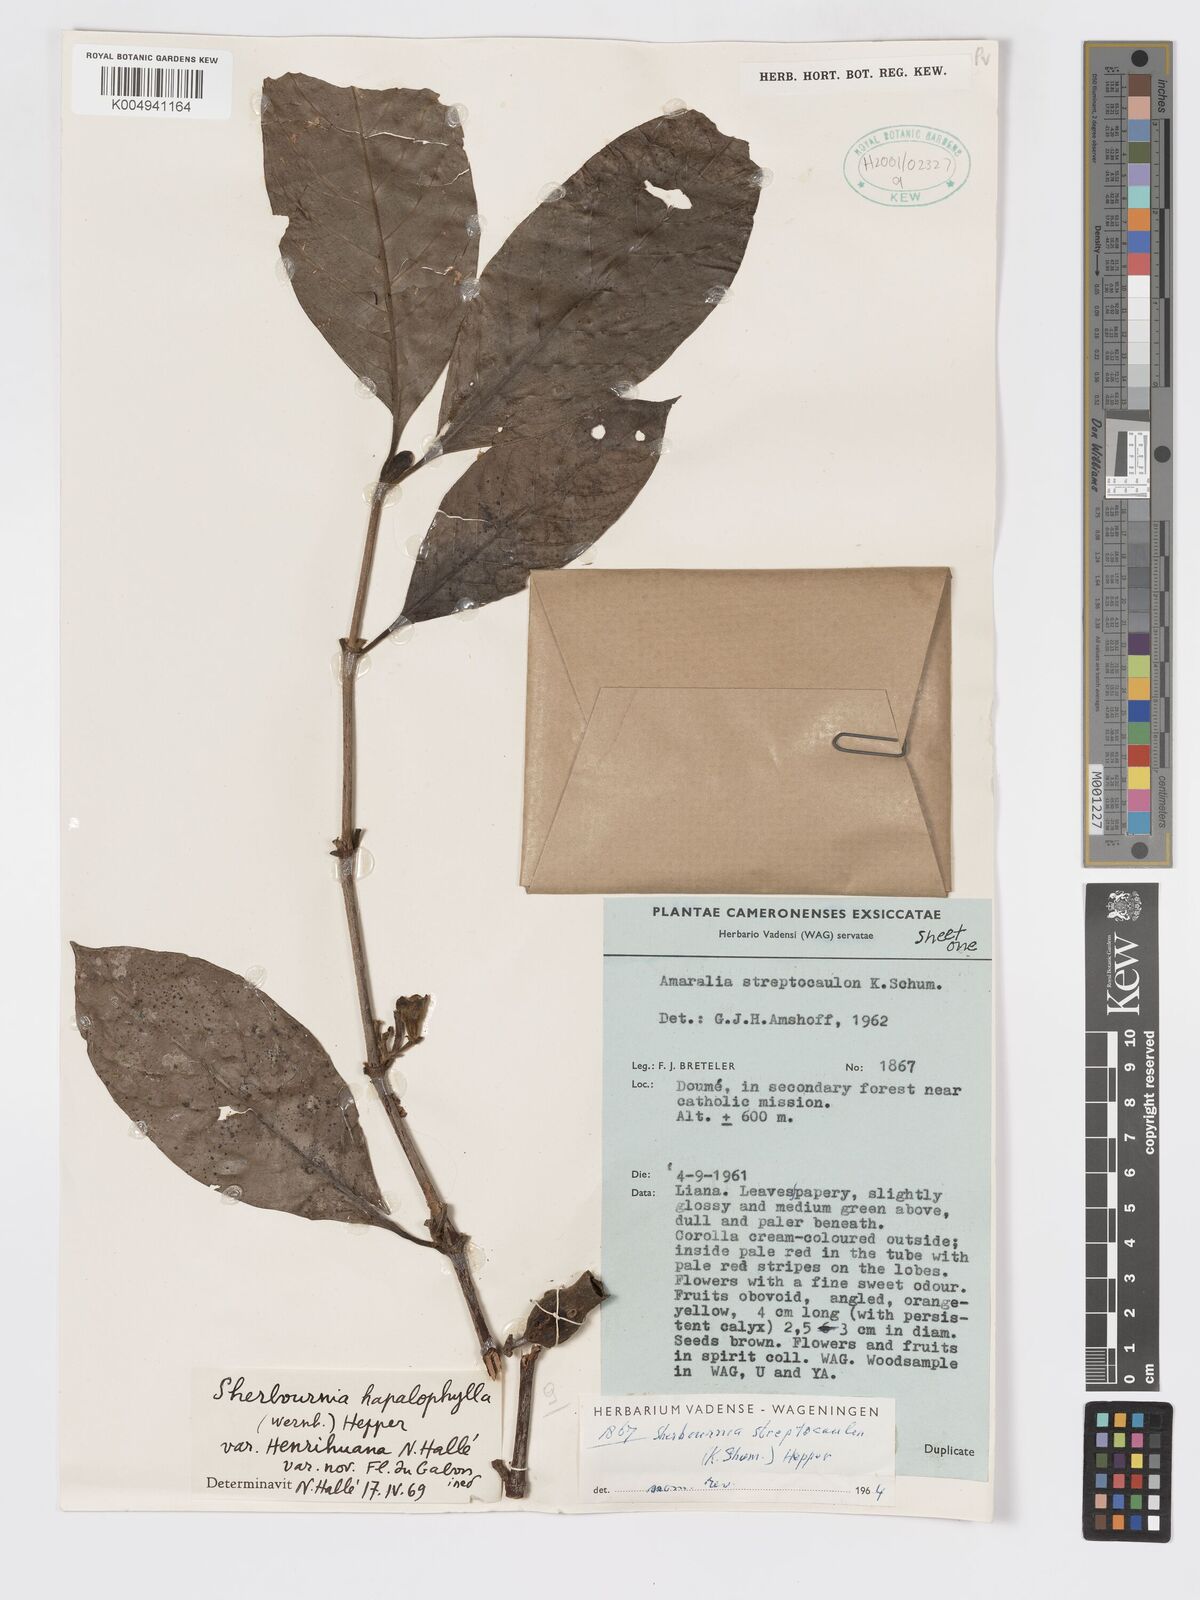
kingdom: Plantae
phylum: Tracheophyta
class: Magnoliopsida
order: Gentianales
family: Rubiaceae
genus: Sherbournia
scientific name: Sherbournia hapalophylla
